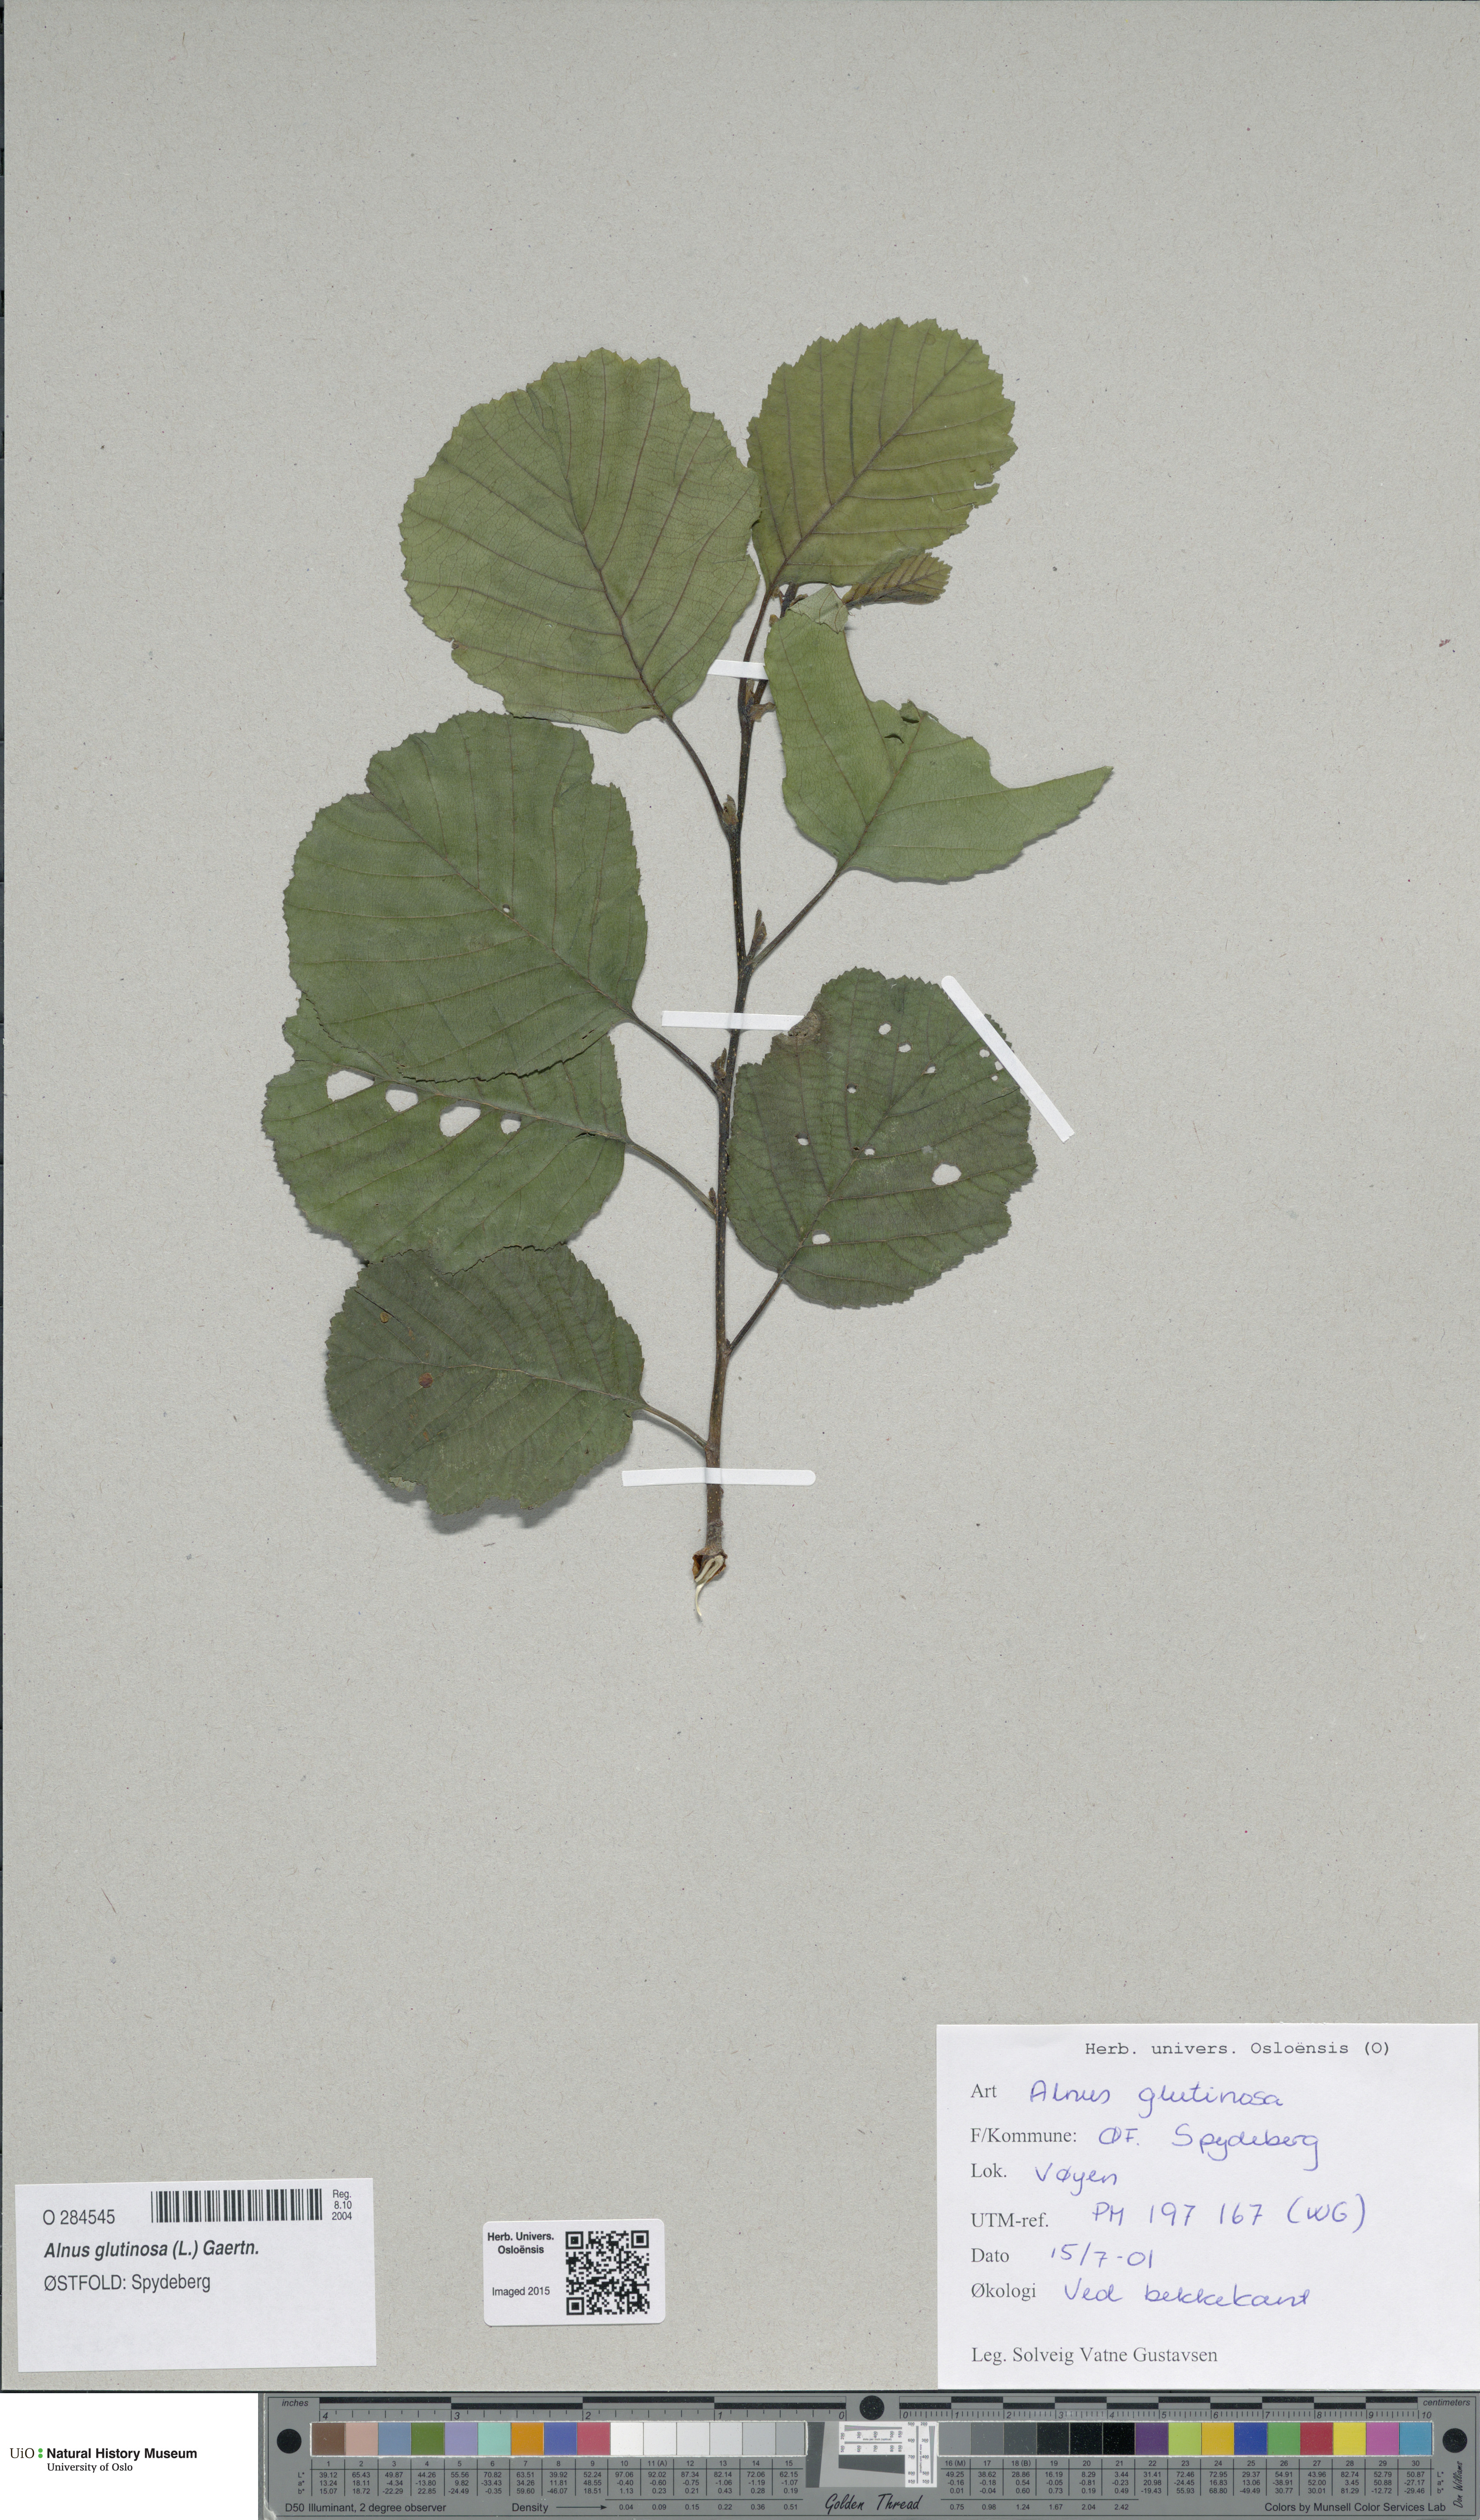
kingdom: Plantae
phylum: Tracheophyta
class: Magnoliopsida
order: Fagales
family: Betulaceae
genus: Alnus
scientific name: Alnus glutinosa
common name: Black alder
